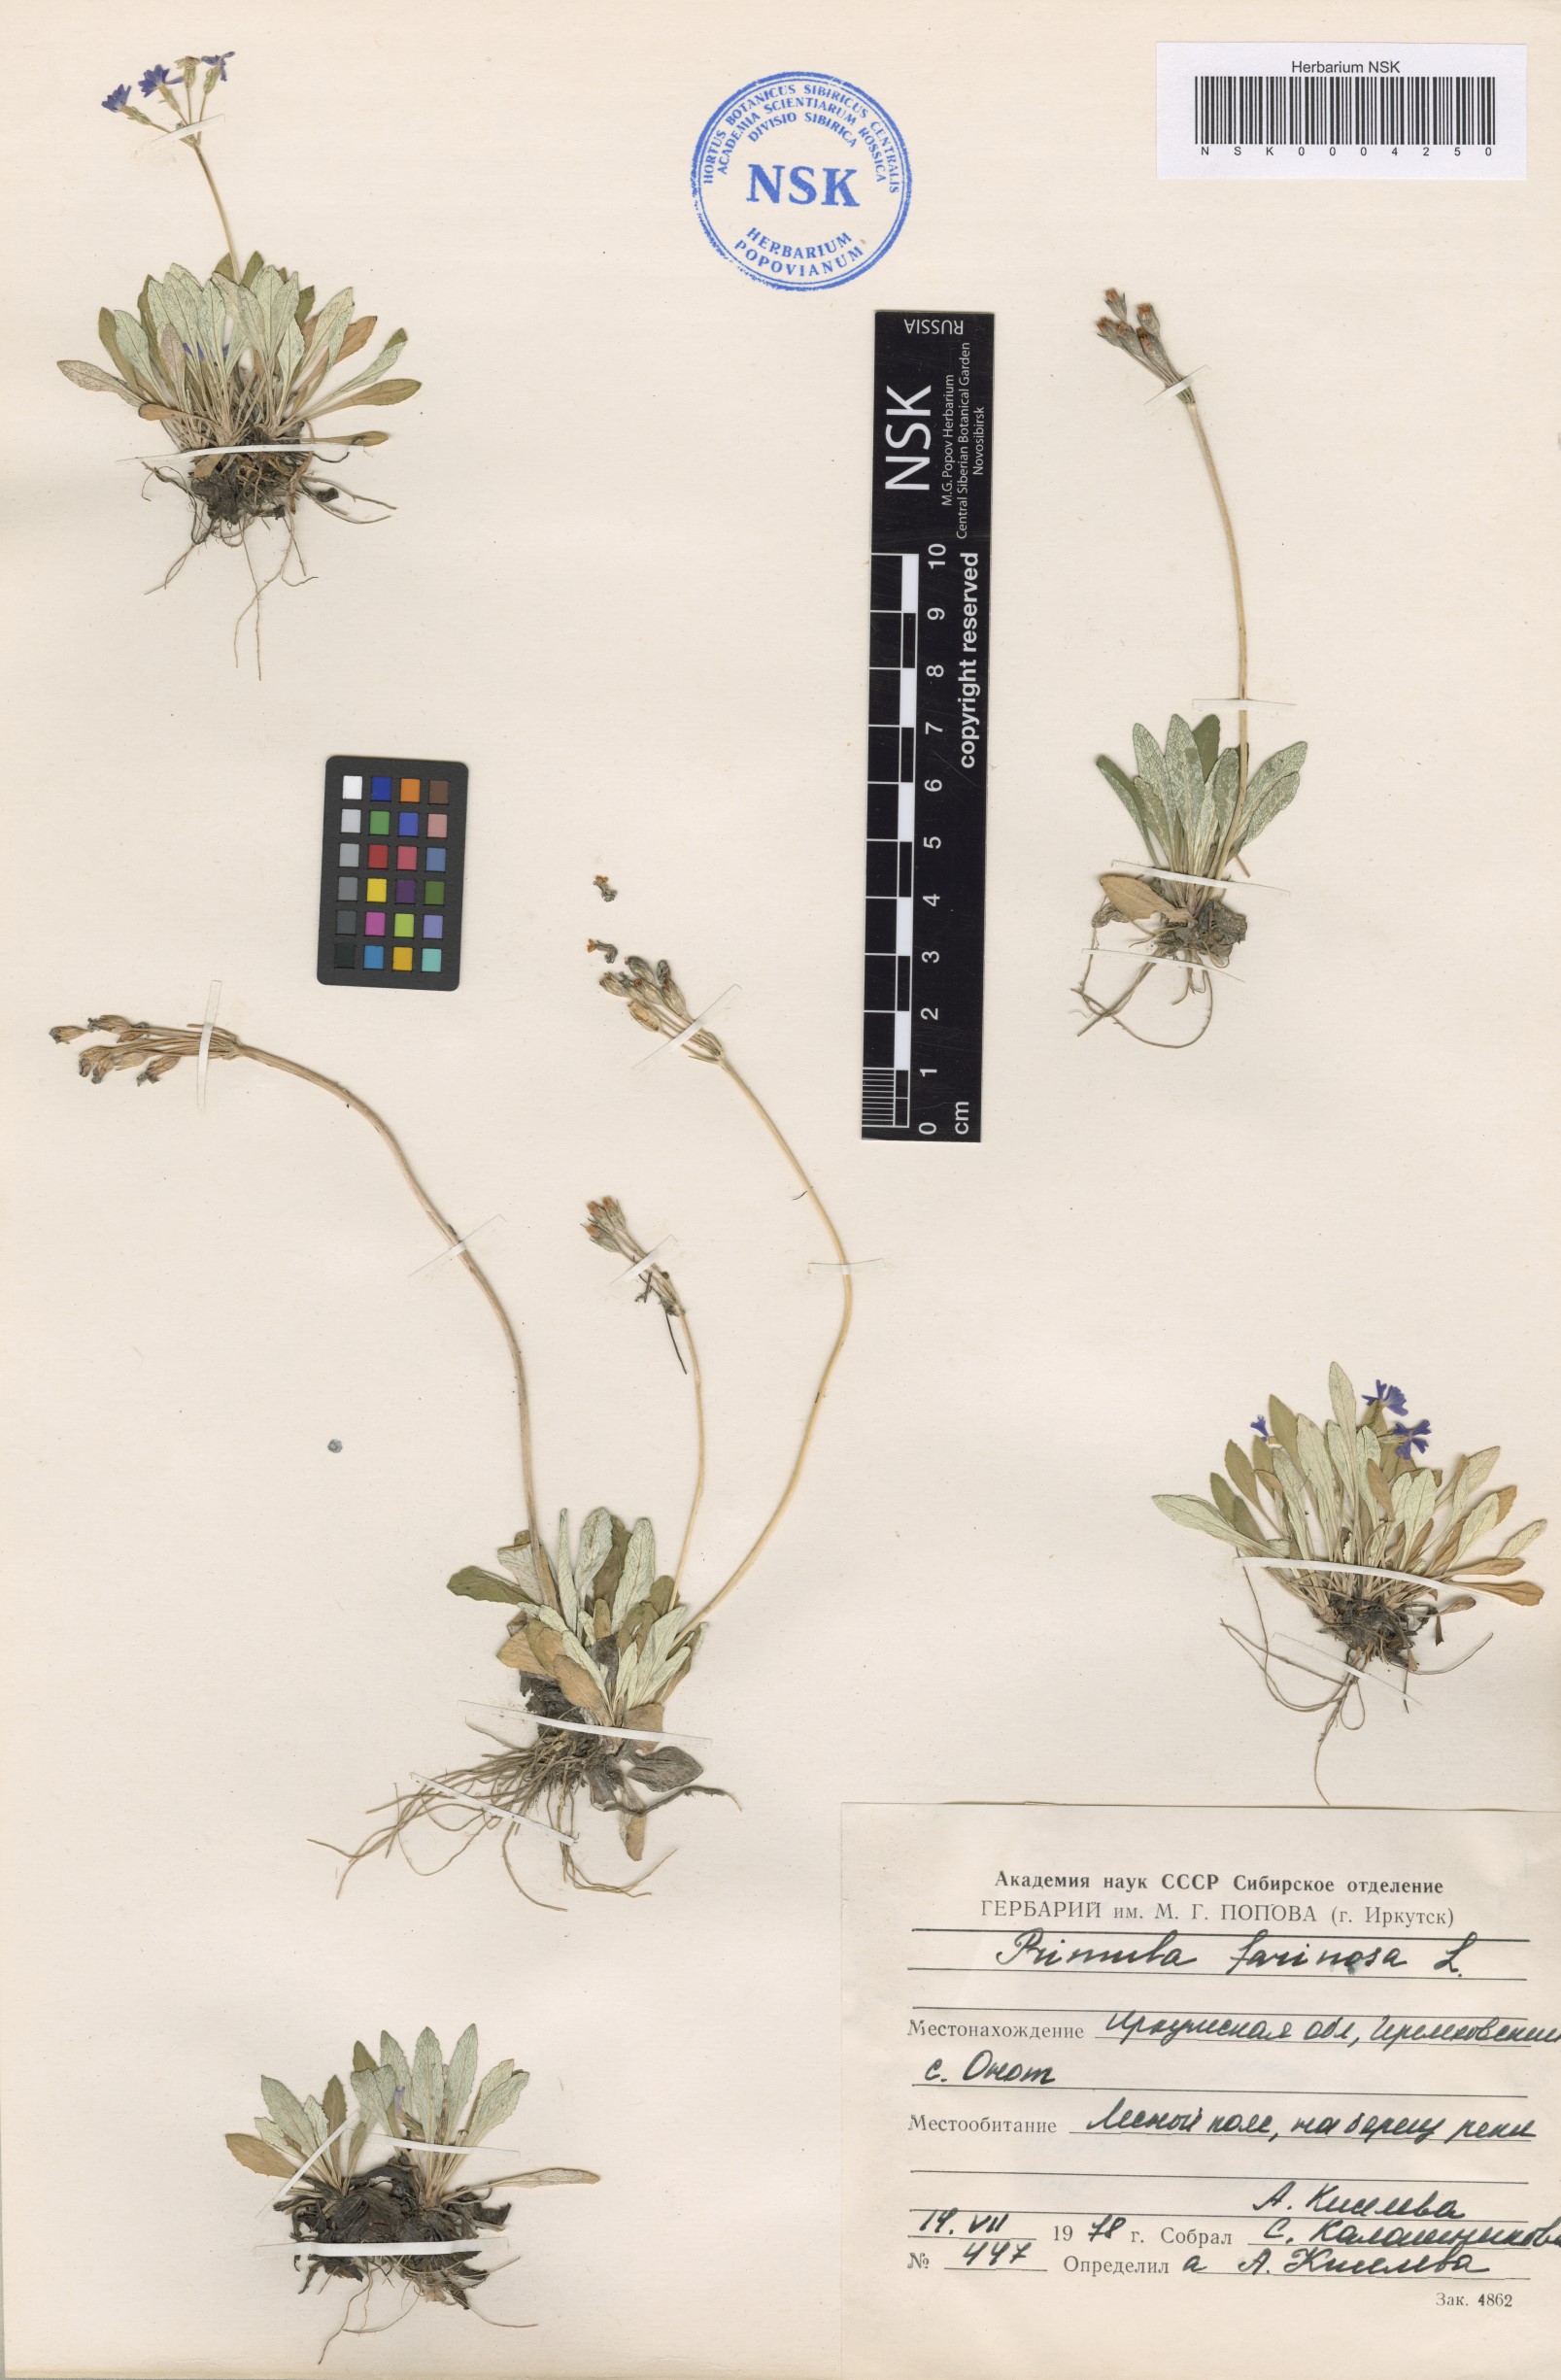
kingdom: Plantae
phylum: Tracheophyta
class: Magnoliopsida
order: Ericales
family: Primulaceae
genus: Primula
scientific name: Primula farinosa
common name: Bird's-eye primrose
